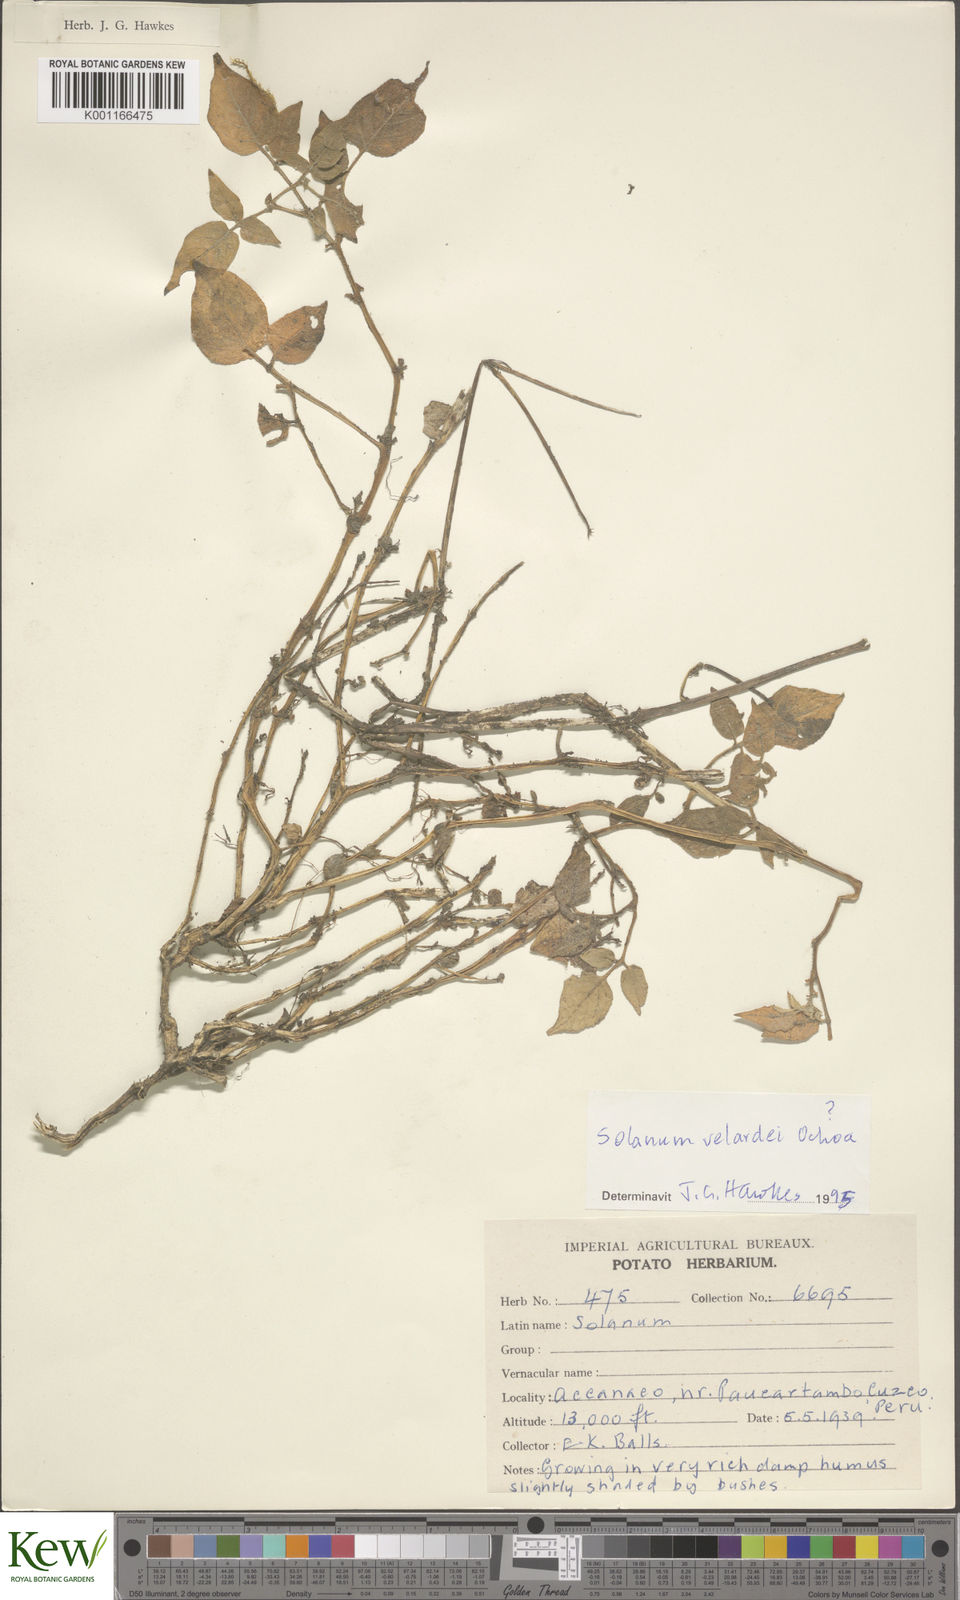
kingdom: Plantae
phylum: Tracheophyta
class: Magnoliopsida
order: Solanales
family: Solanaceae
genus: Solanum
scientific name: Solanum velardei
